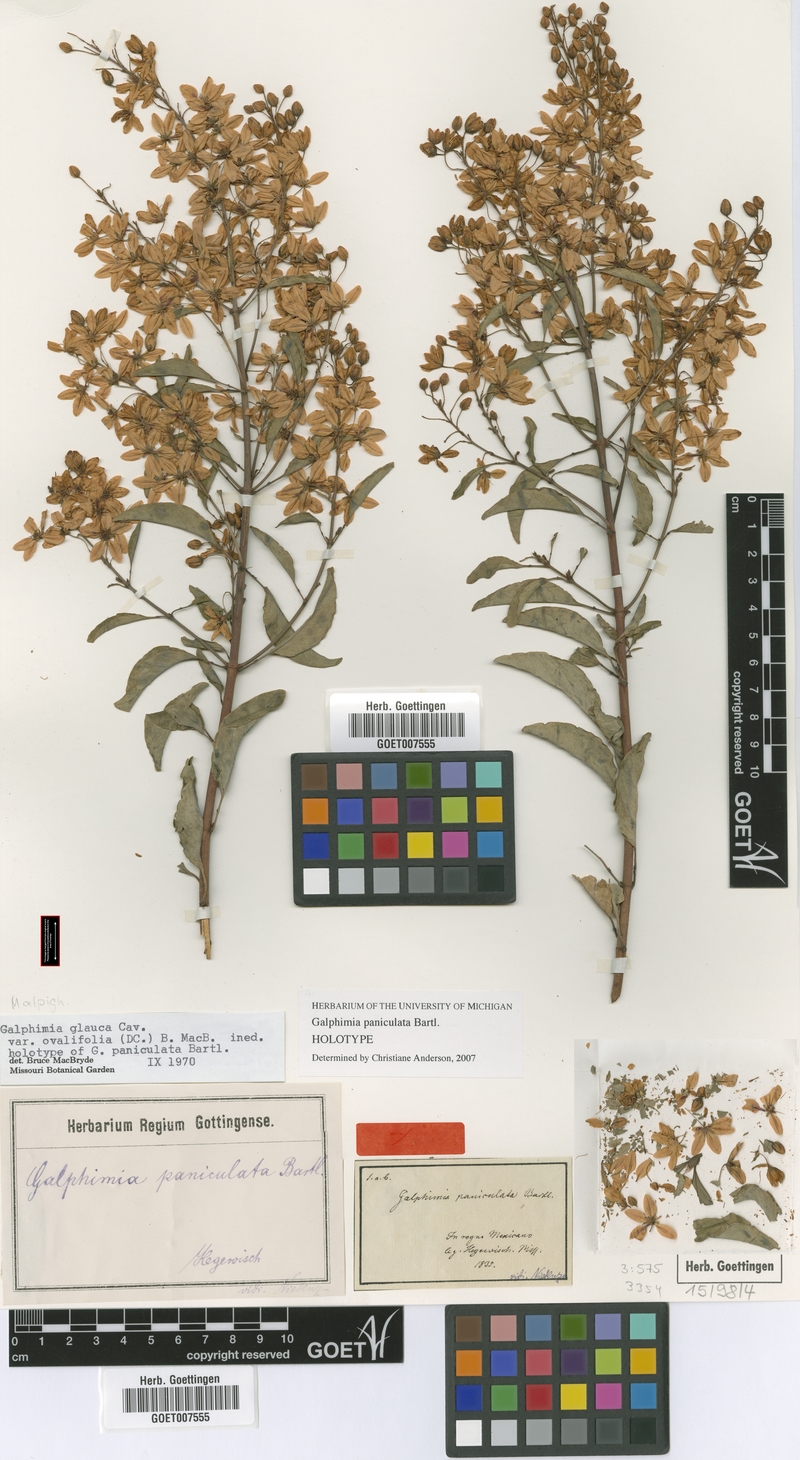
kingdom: Plantae
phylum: Tracheophyta
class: Magnoliopsida
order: Malpighiales
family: Malpighiaceae
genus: Galphimia
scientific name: Galphimia paniculata
